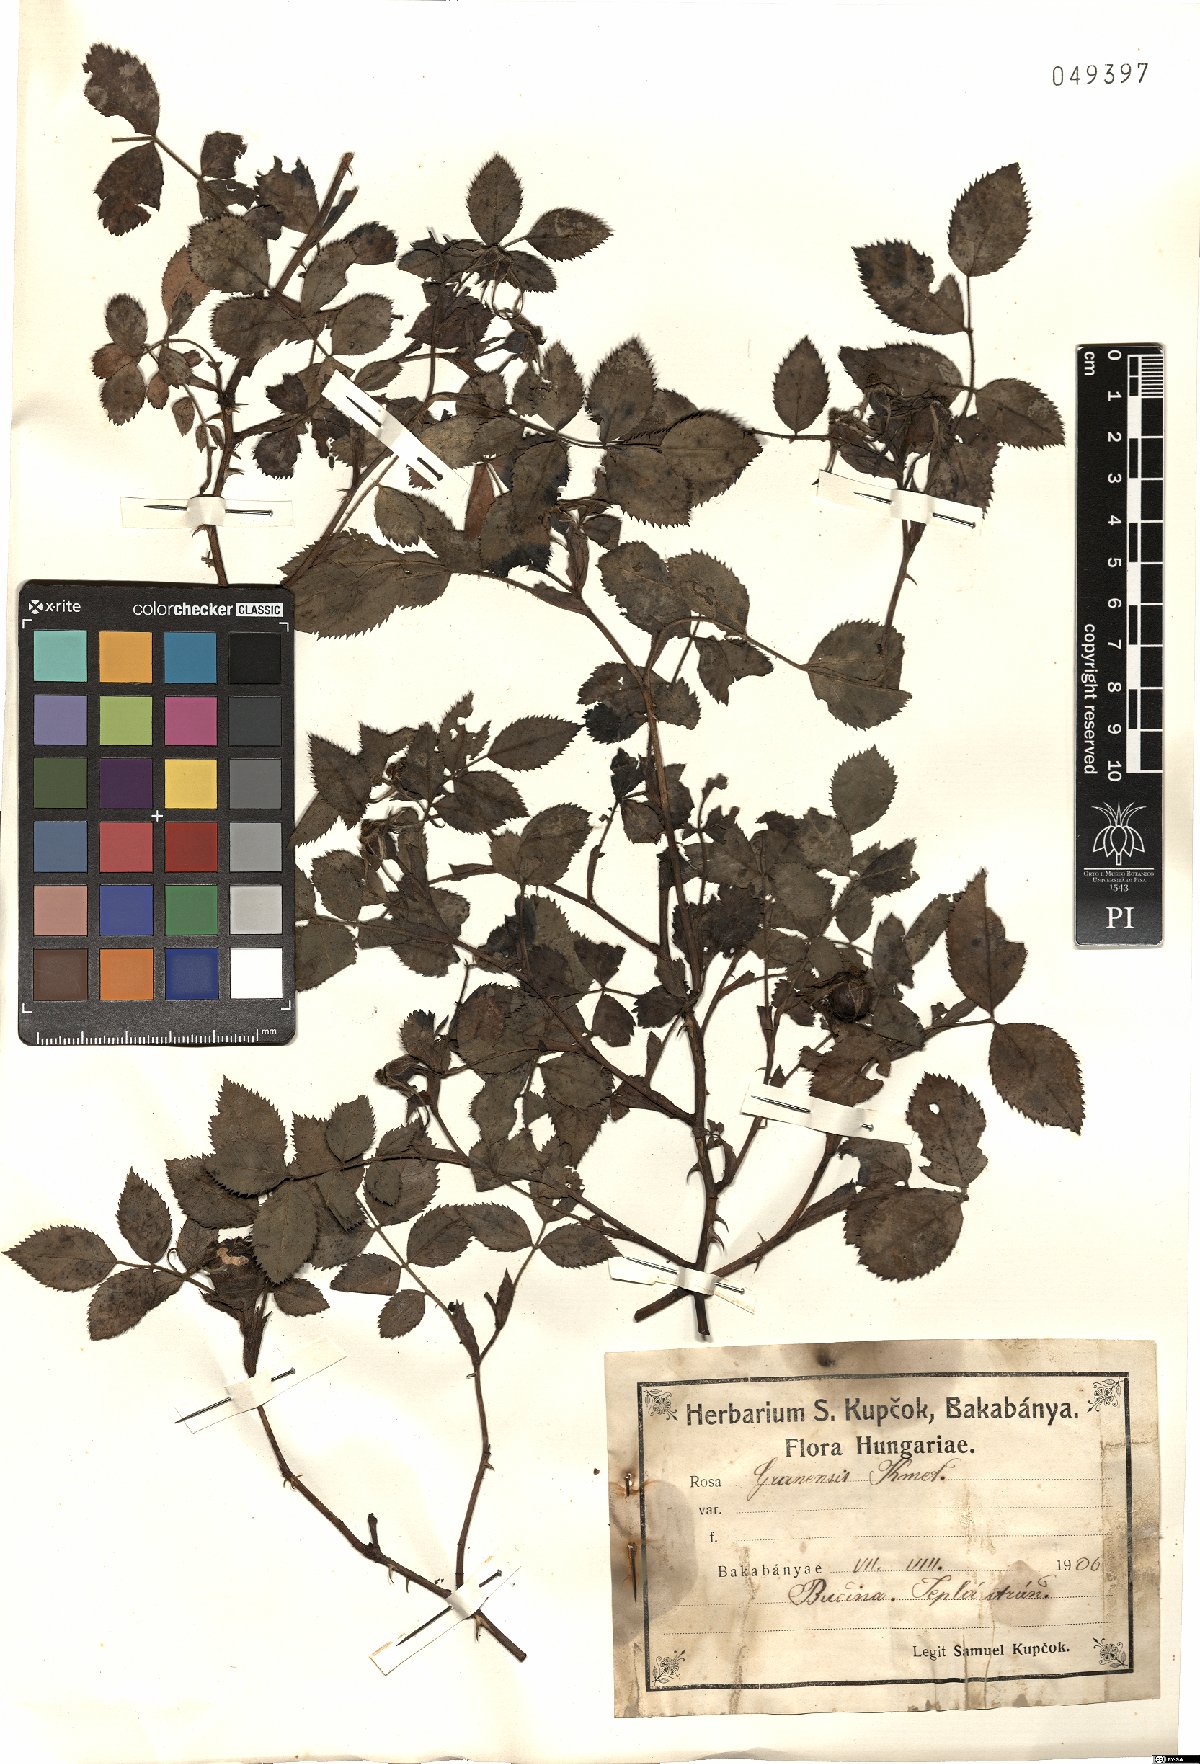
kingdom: Plantae
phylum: Tracheophyta
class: Magnoliopsida
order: Rosales
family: Rosaceae
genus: Rosa
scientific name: Rosa balsamica
